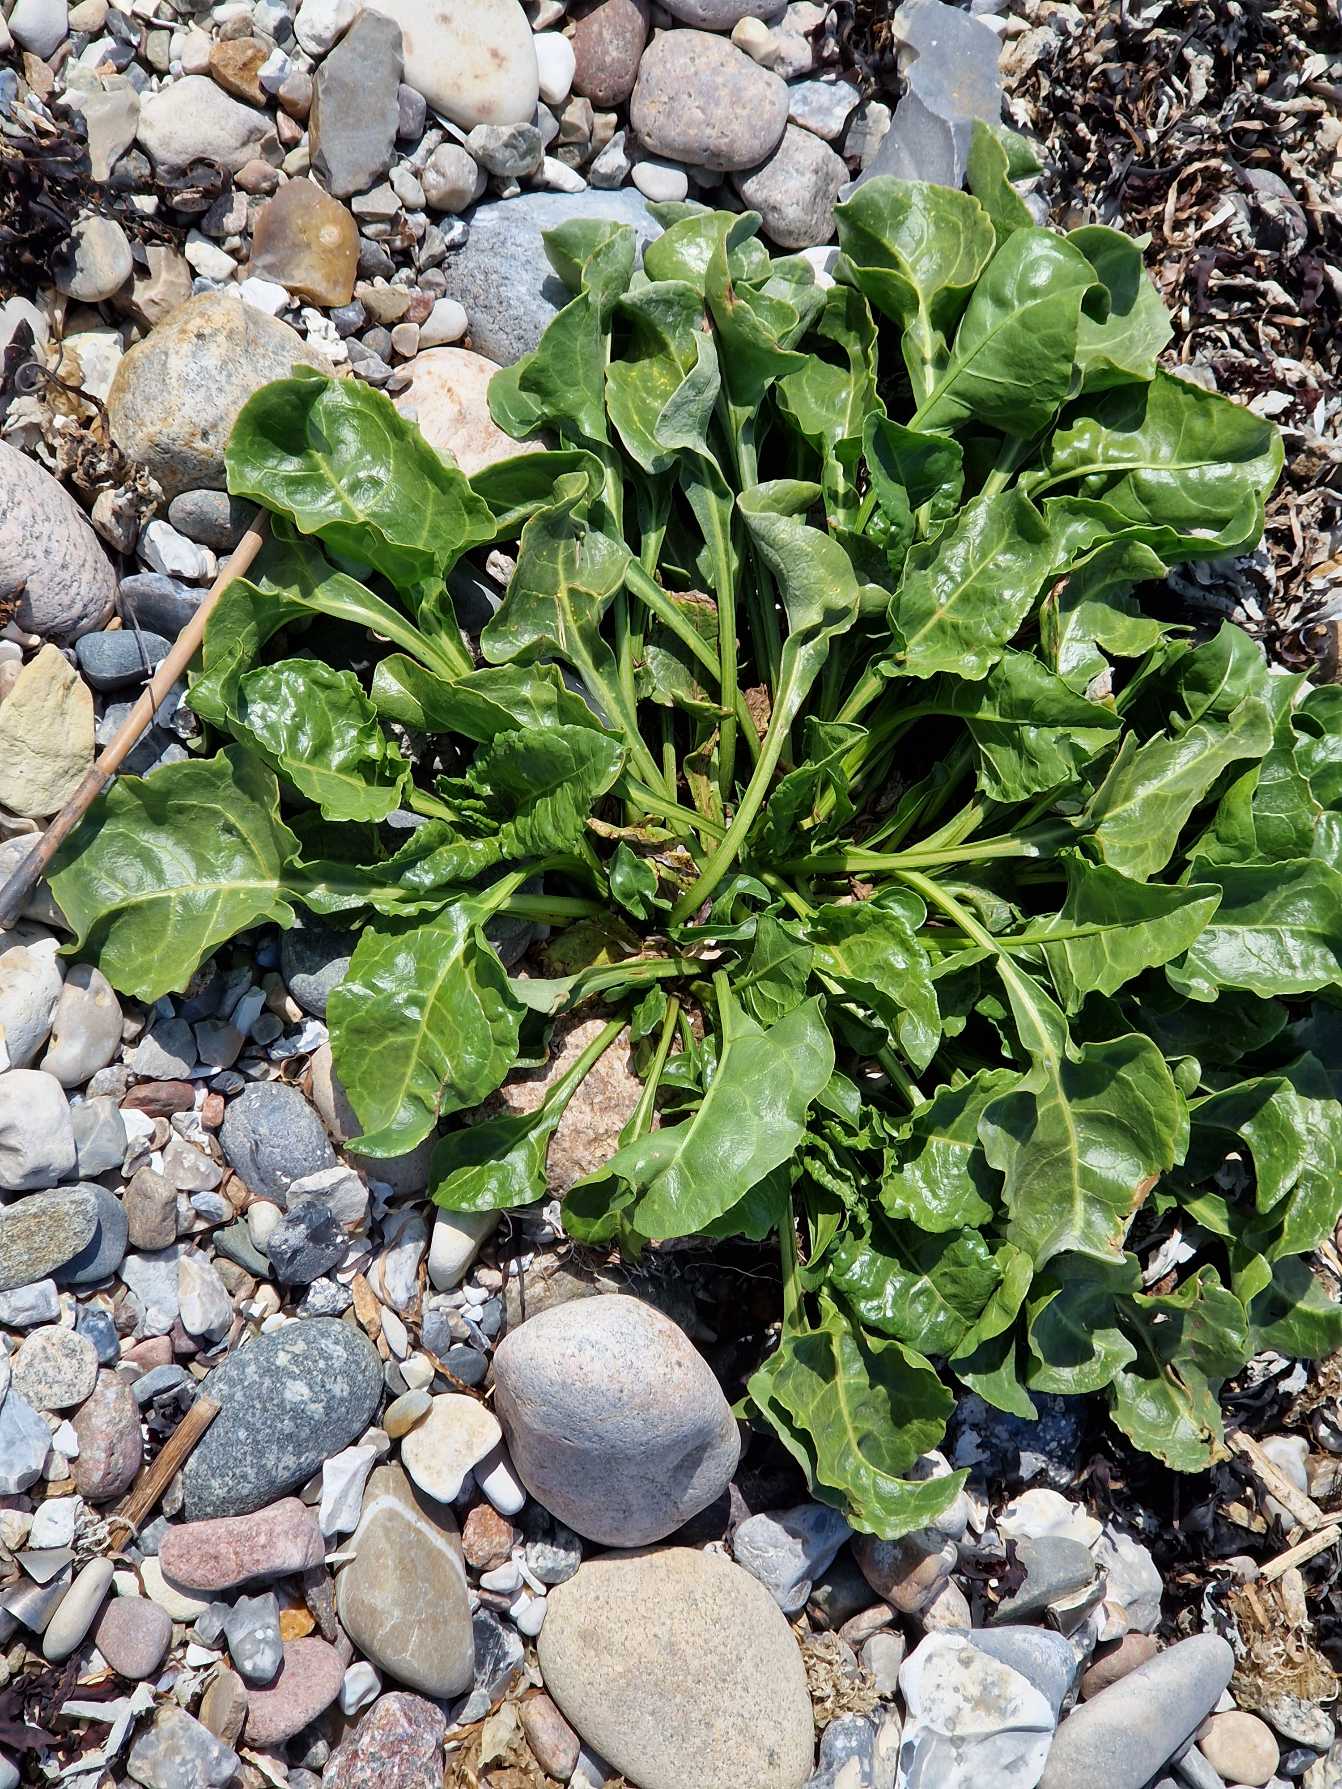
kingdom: Plantae
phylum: Tracheophyta
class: Magnoliopsida
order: Caryophyllales
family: Amaranthaceae
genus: Beta
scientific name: Beta maritima
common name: Strand-bede
